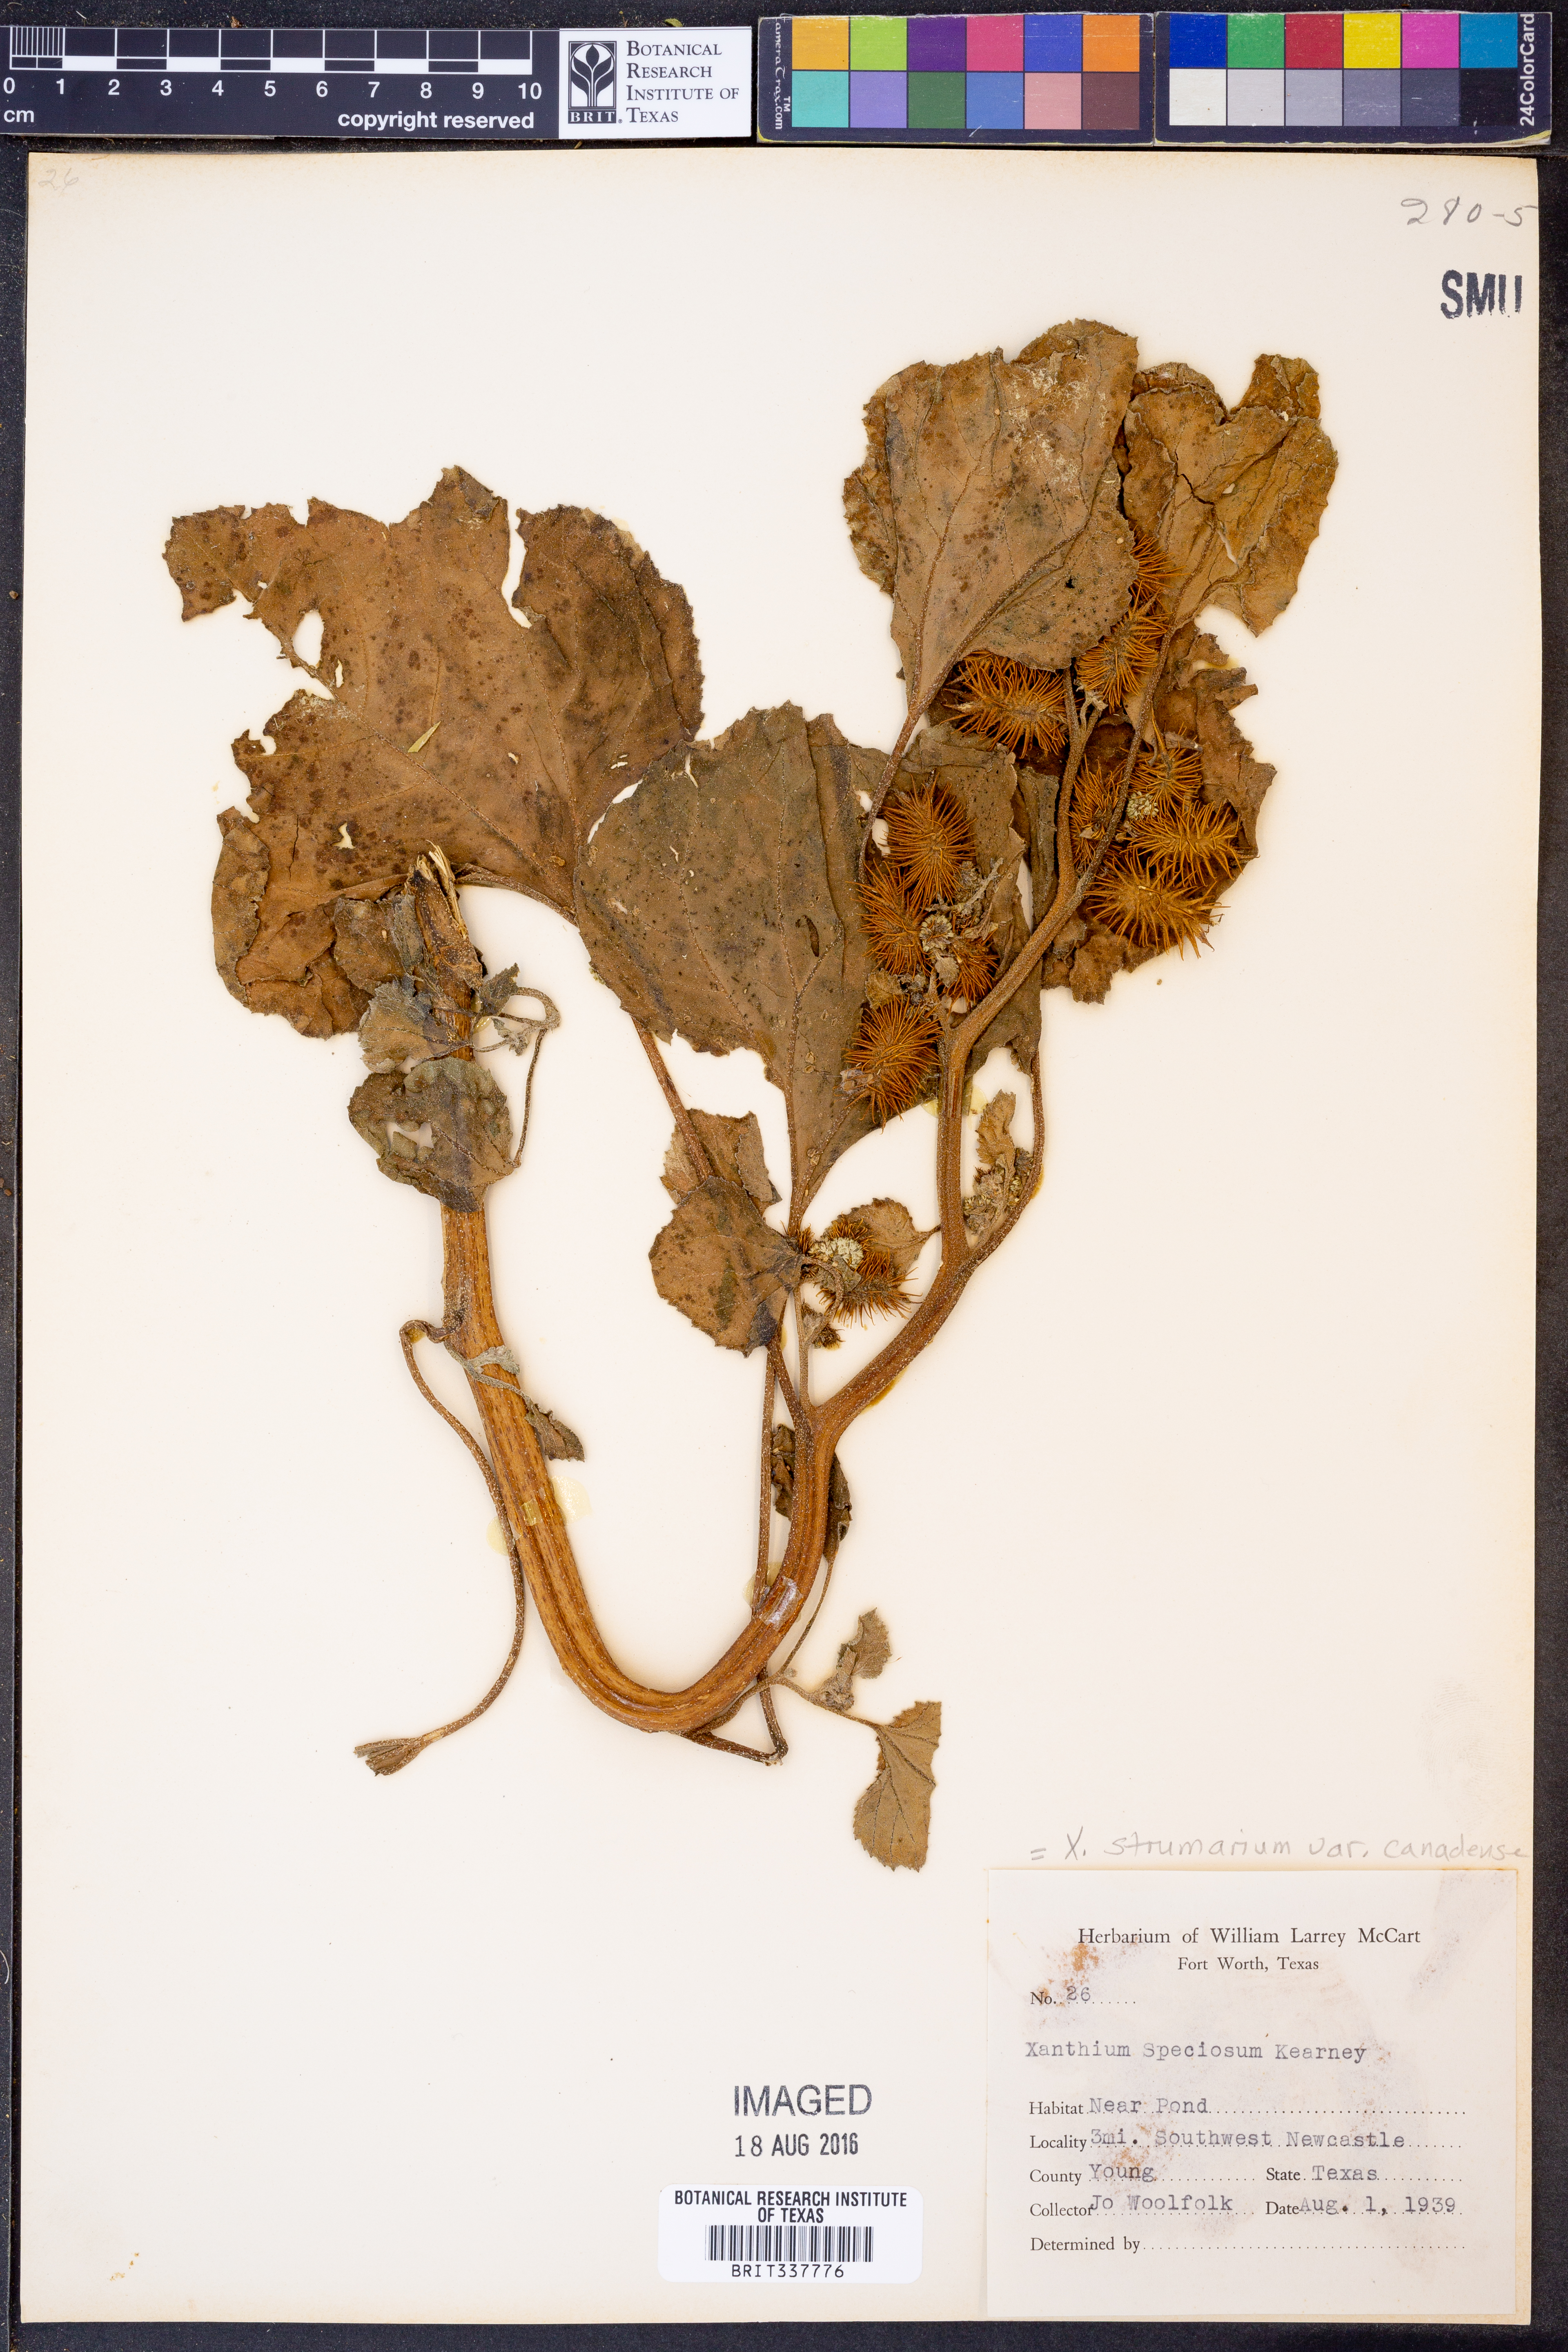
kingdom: Plantae
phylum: Tracheophyta
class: Magnoliopsida
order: Asterales
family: Asteraceae
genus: Xanthium
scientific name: Xanthium orientale
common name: Californian burr
